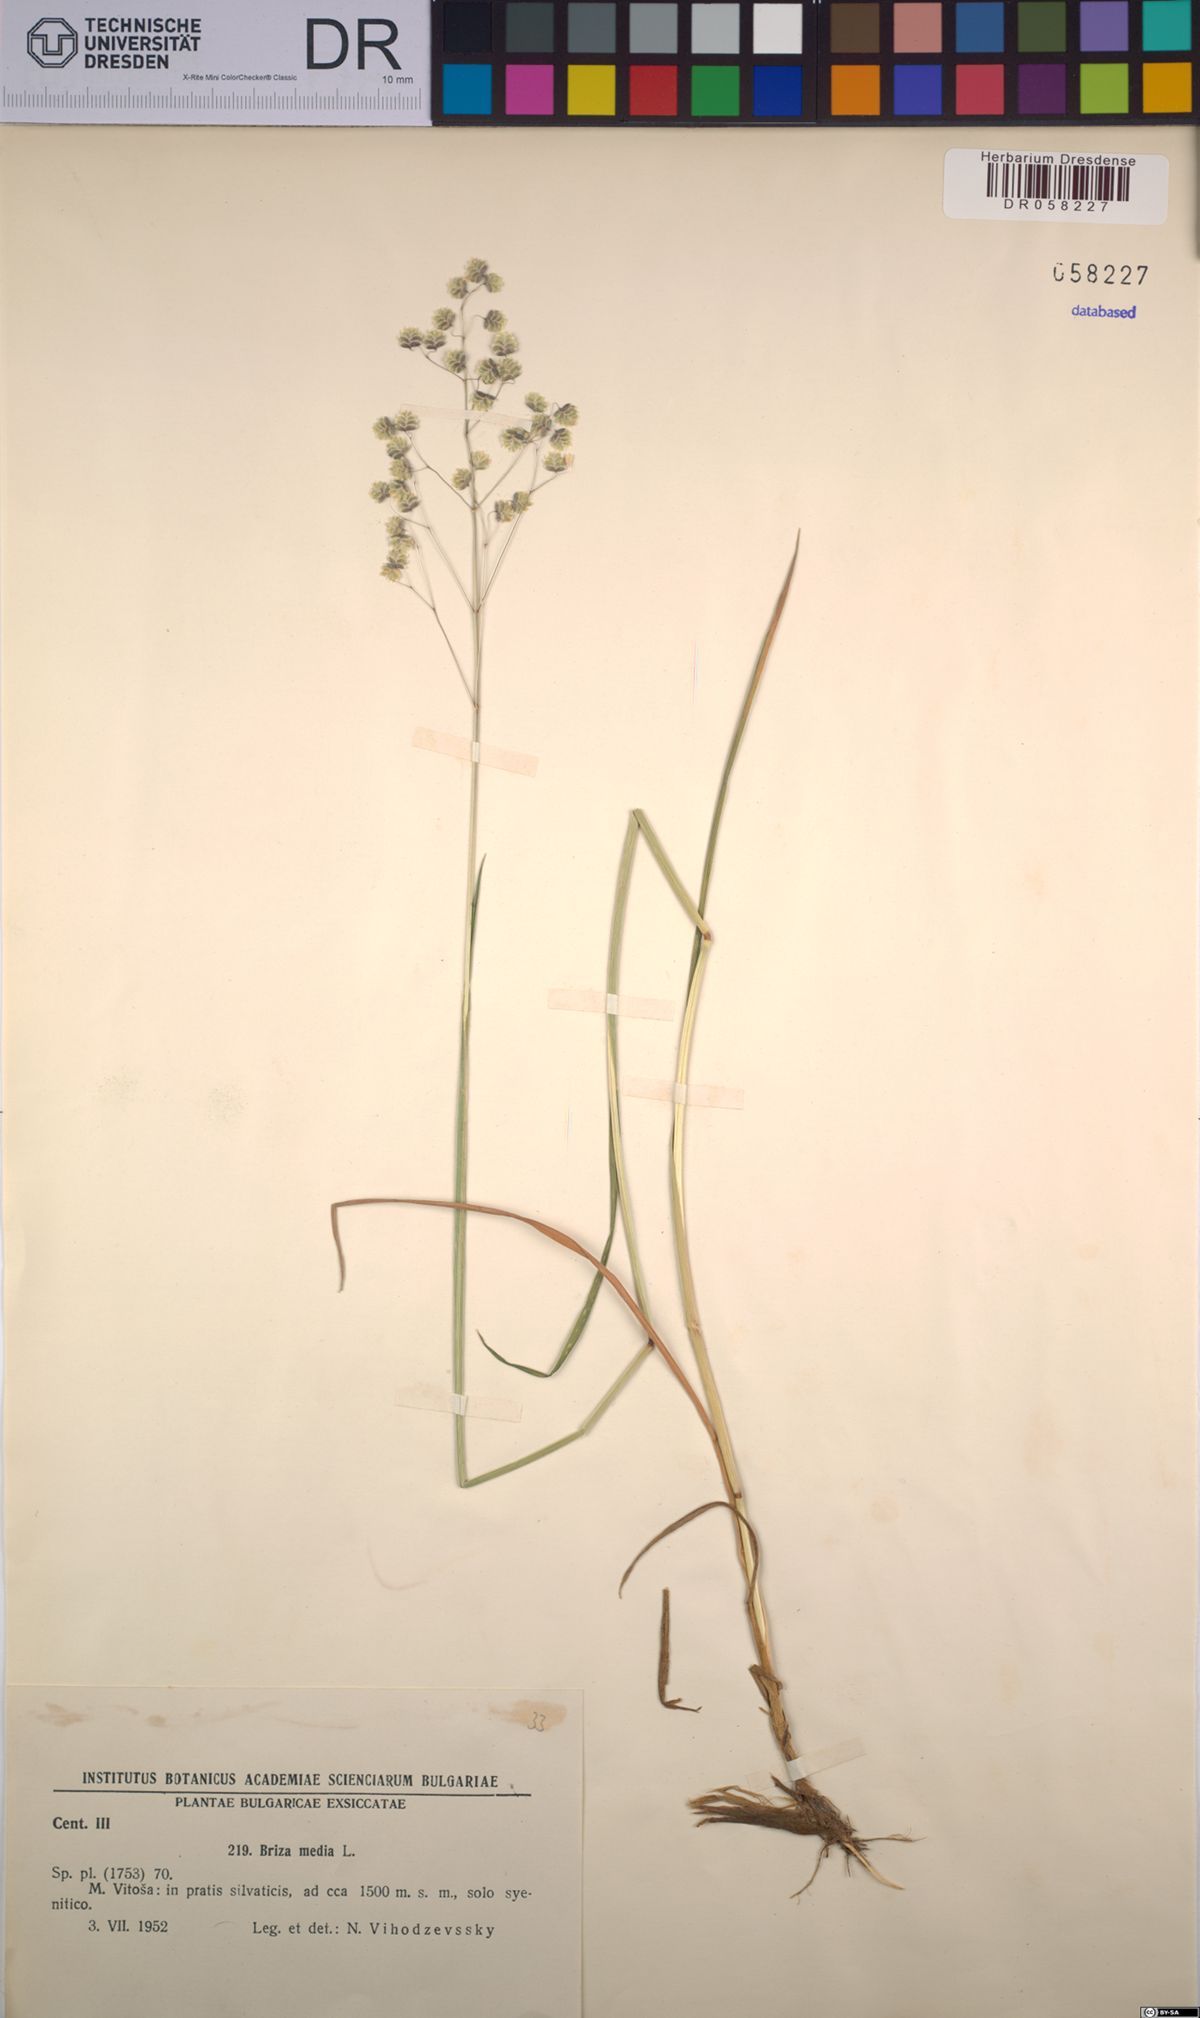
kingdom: Plantae
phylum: Tracheophyta
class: Liliopsida
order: Poales
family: Poaceae
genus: Briza
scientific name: Briza media
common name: Quaking grass
